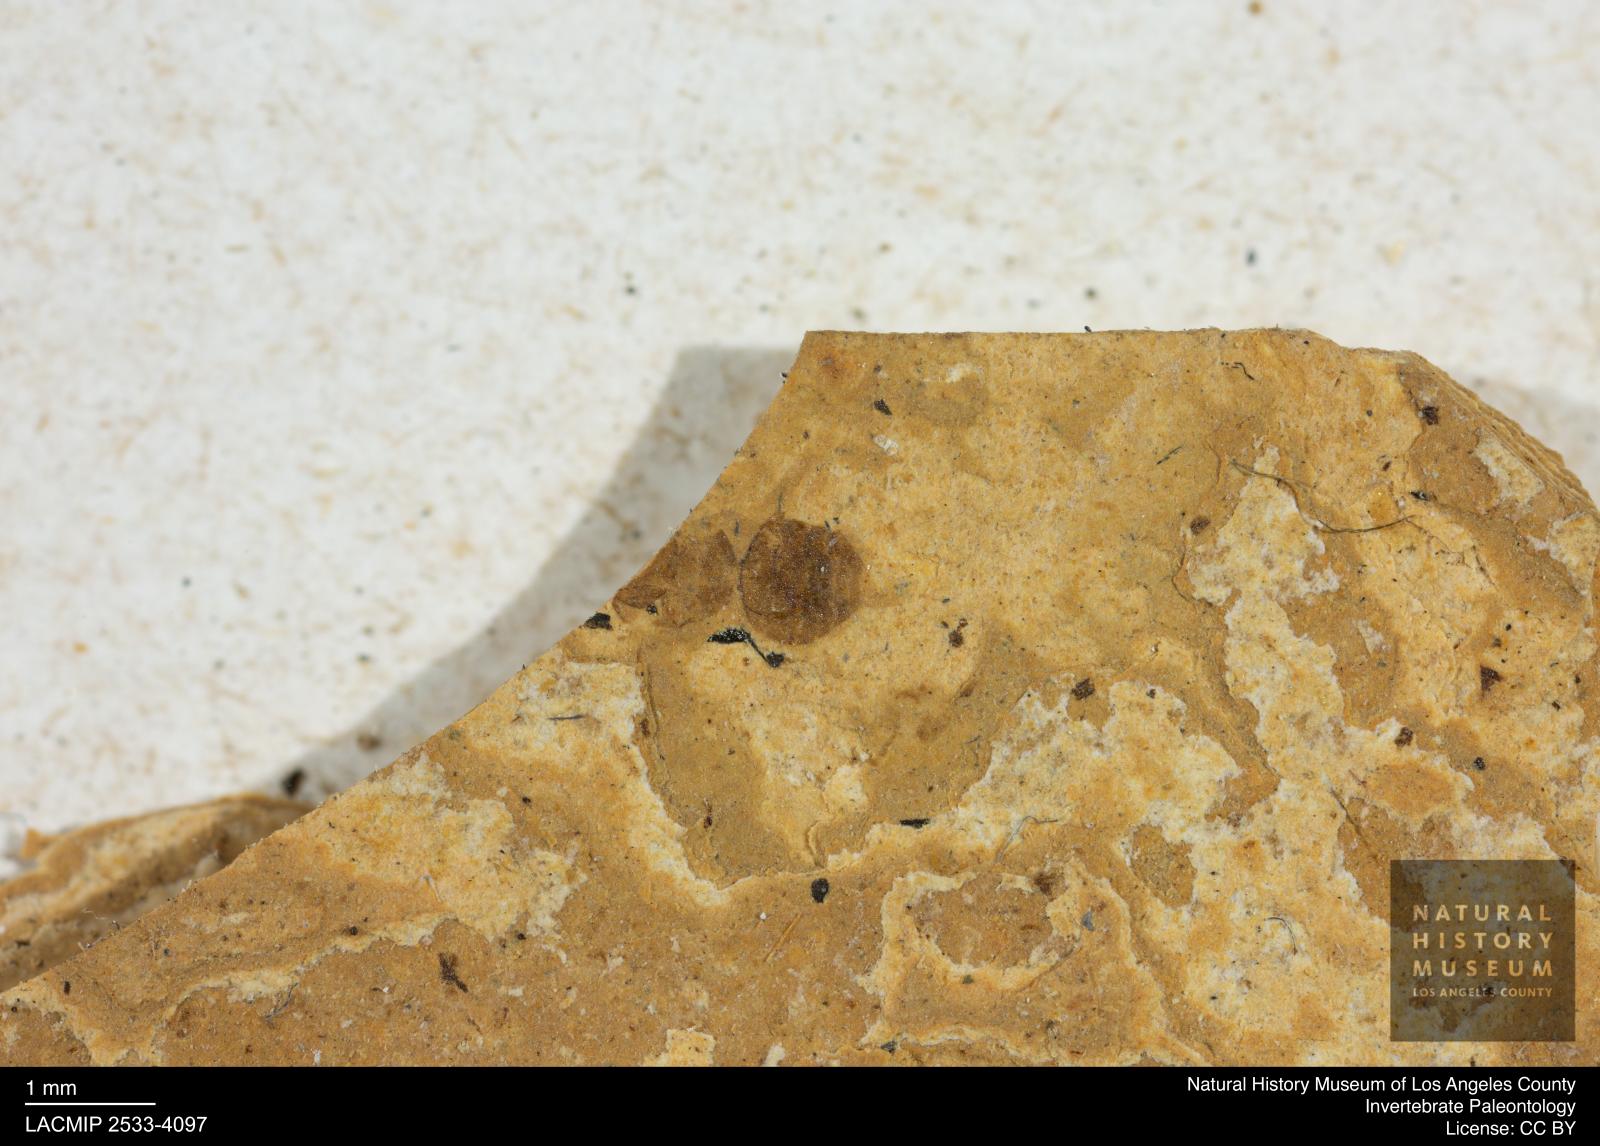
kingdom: Animalia
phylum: Arthropoda
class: Insecta
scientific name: Insecta
